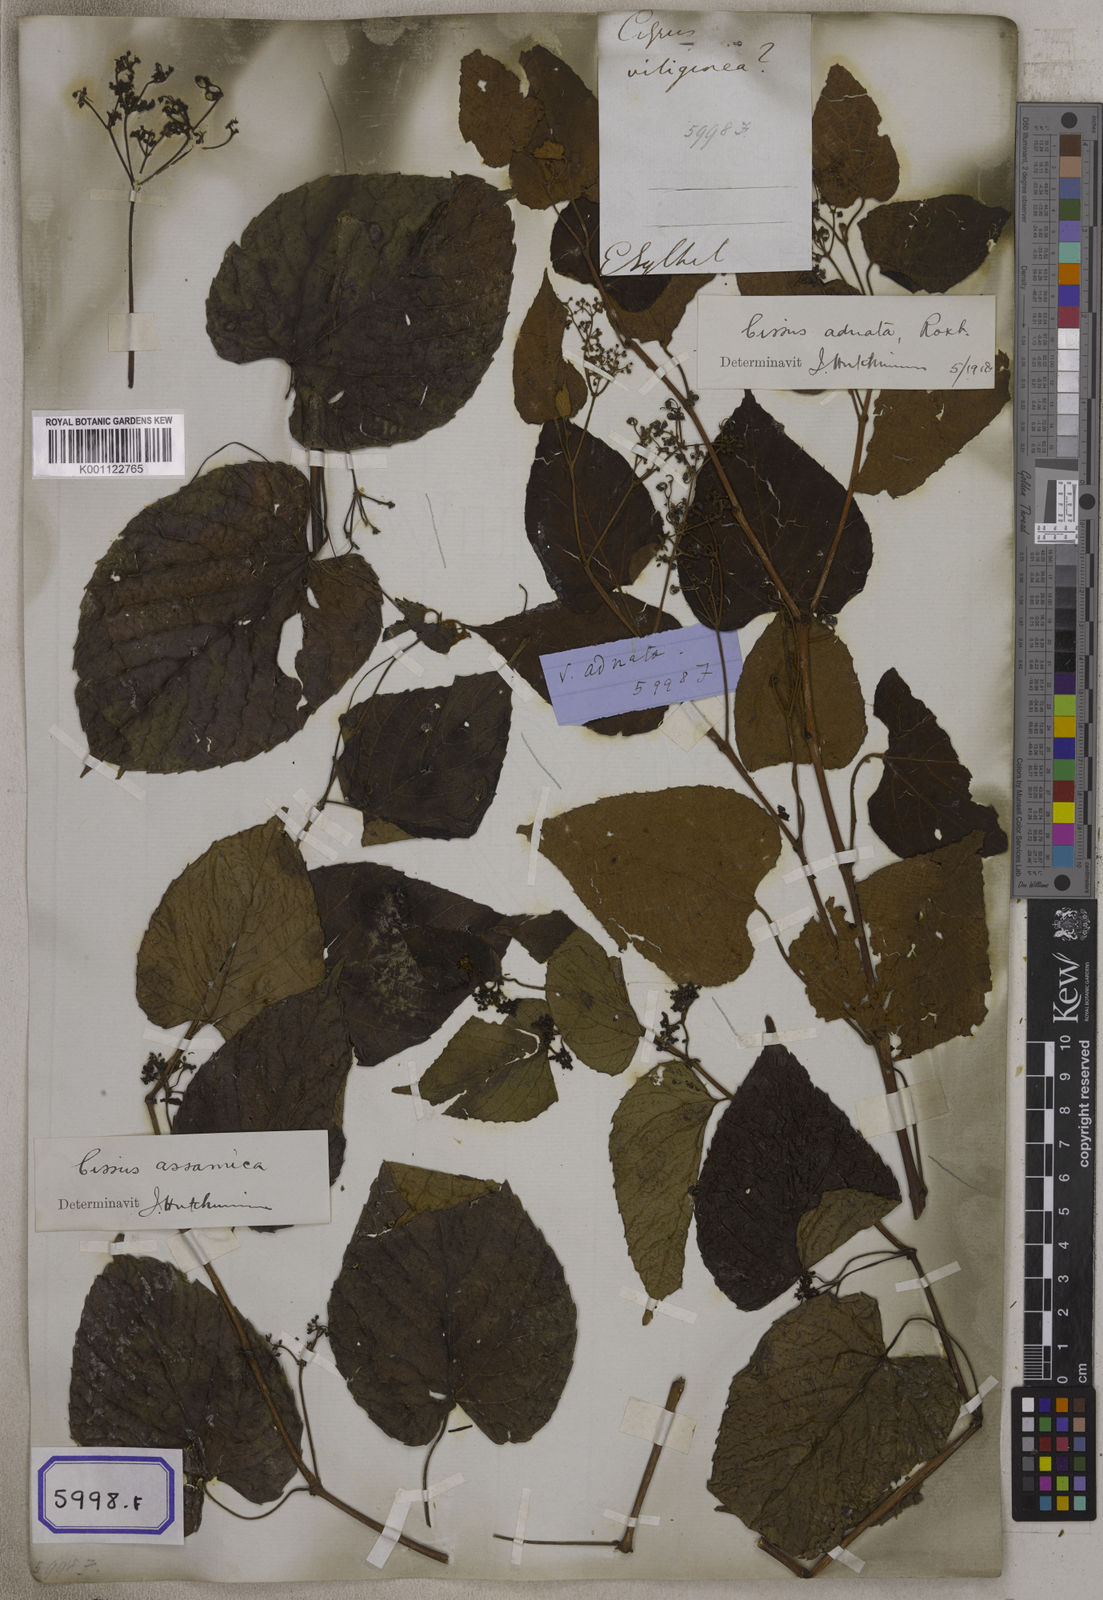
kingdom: Plantae
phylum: Tracheophyta
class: Magnoliopsida
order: Vitales
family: Vitaceae
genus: Cissus
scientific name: Cissus adnata
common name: Heart-leaf-grape
